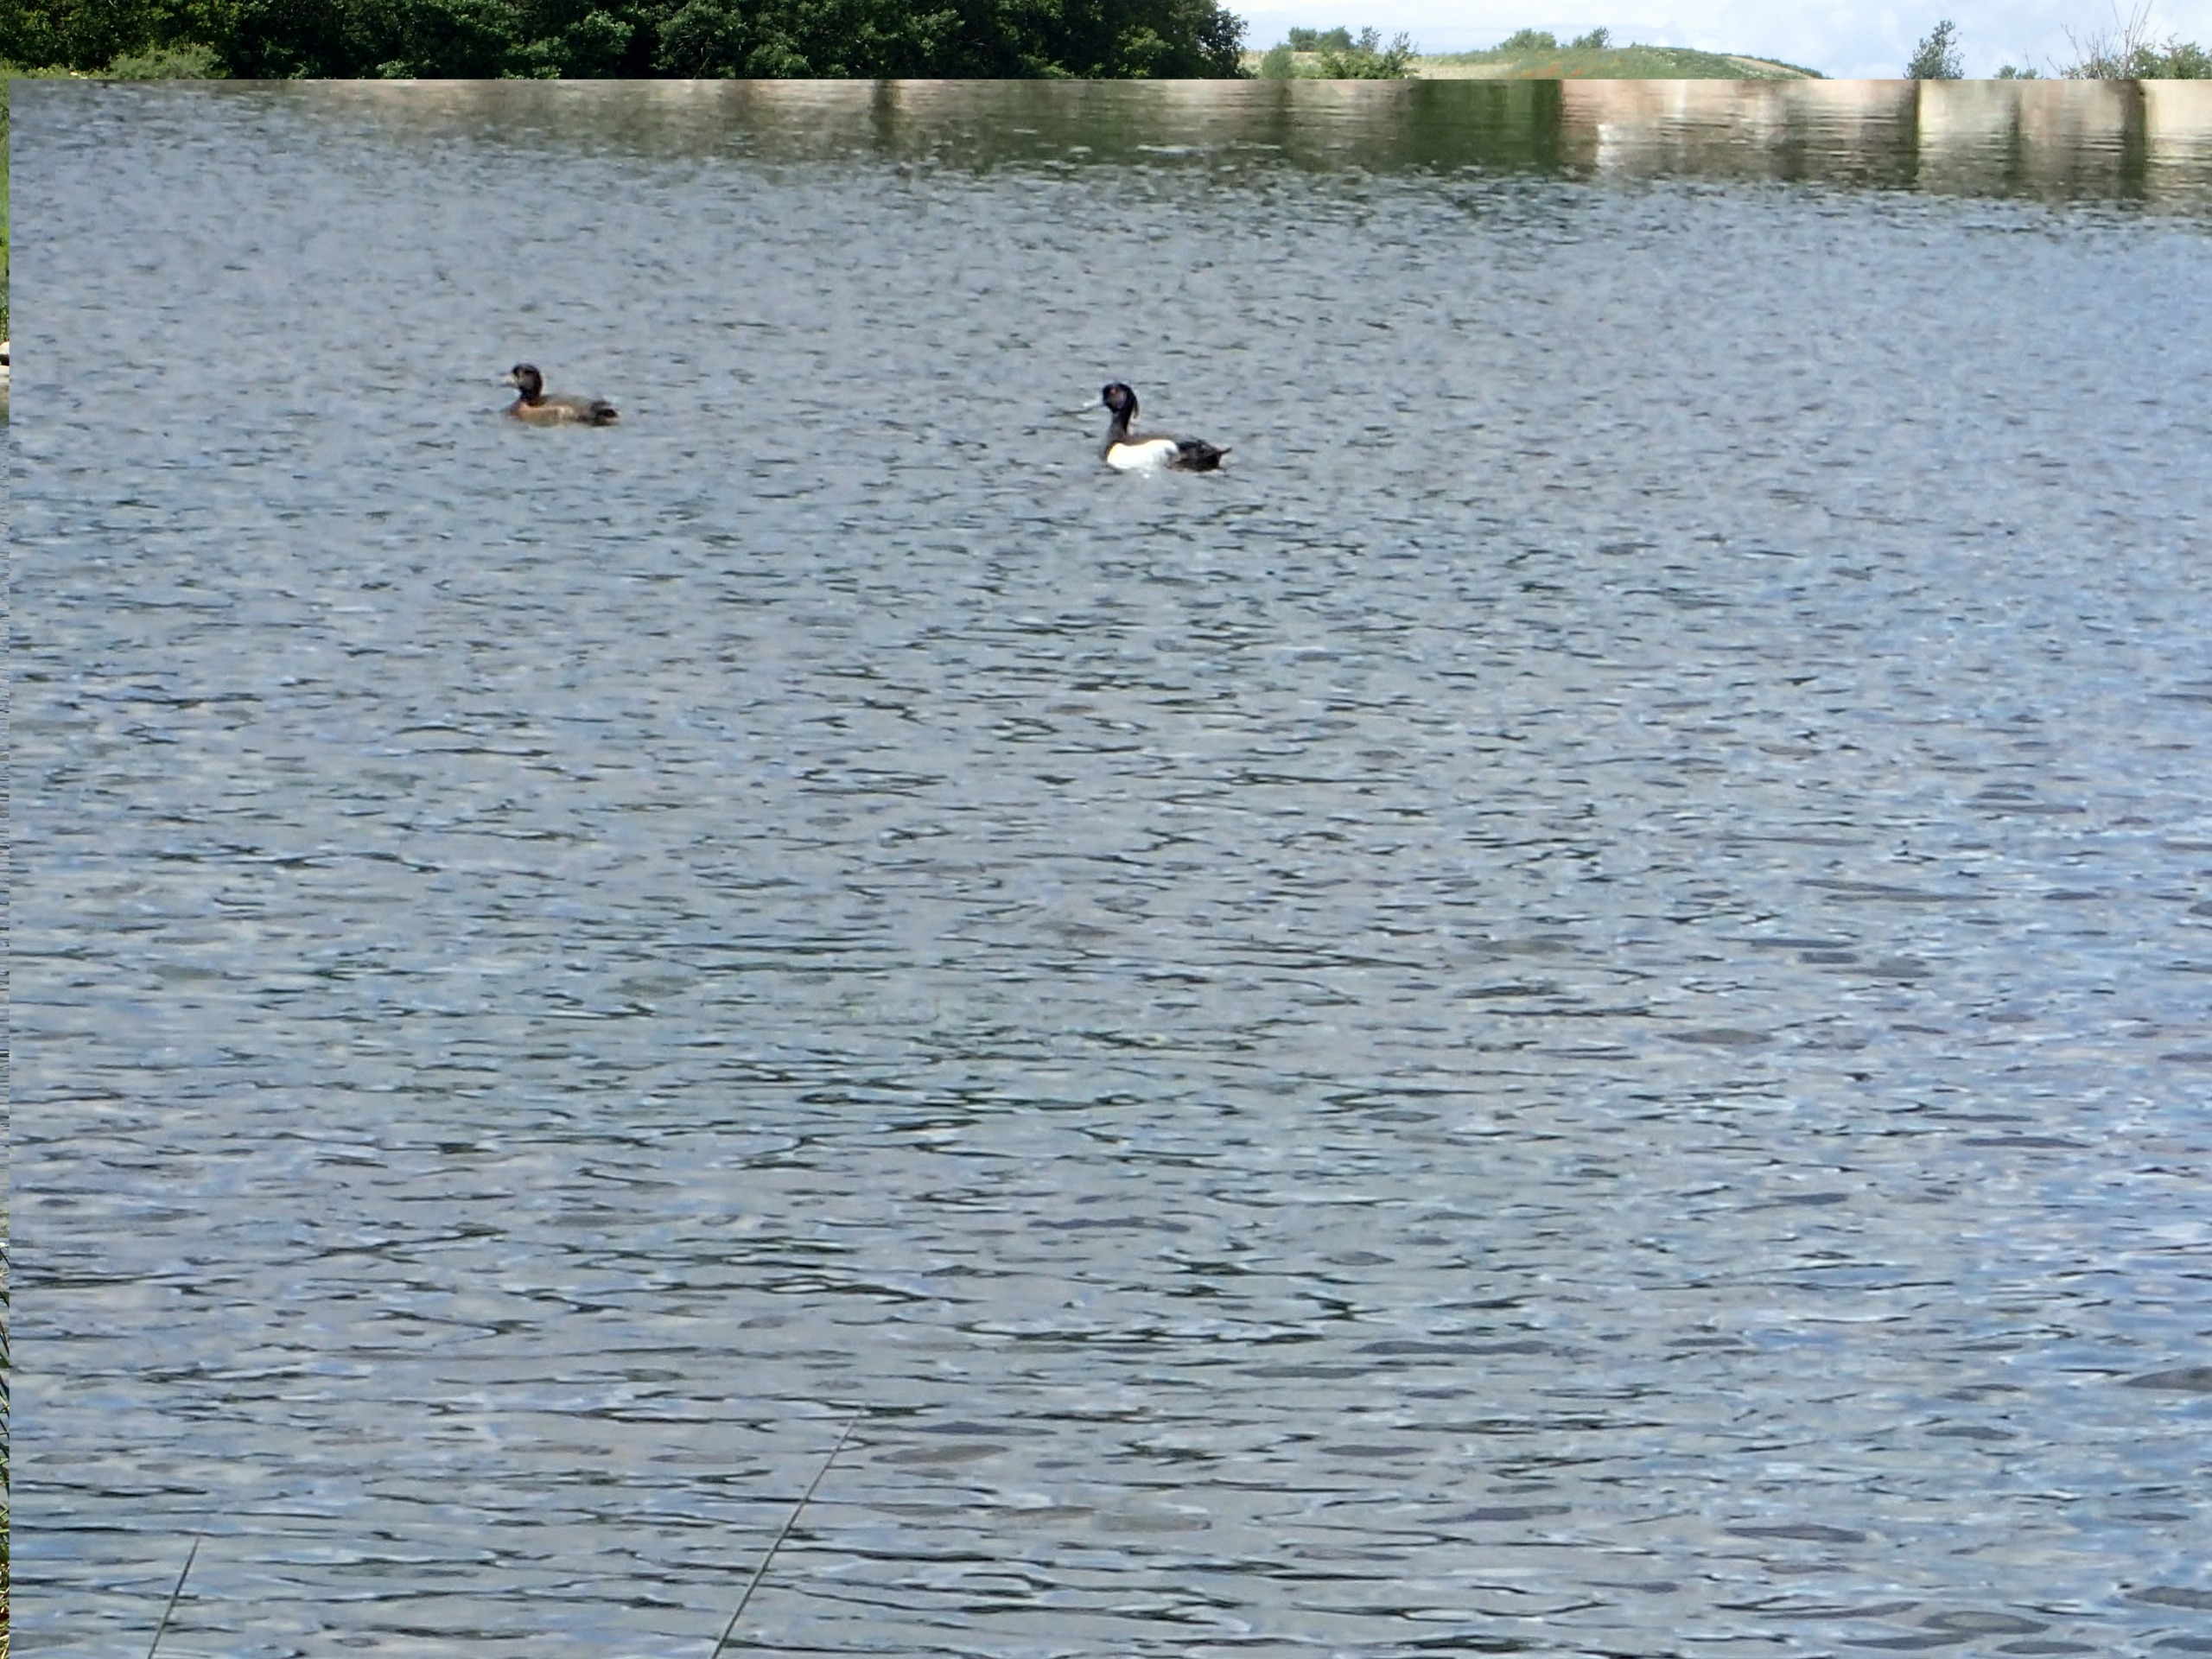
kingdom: Animalia
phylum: Chordata
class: Aves
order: Anseriformes
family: Anatidae
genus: Aythya
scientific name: Aythya fuligula
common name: Troldand
